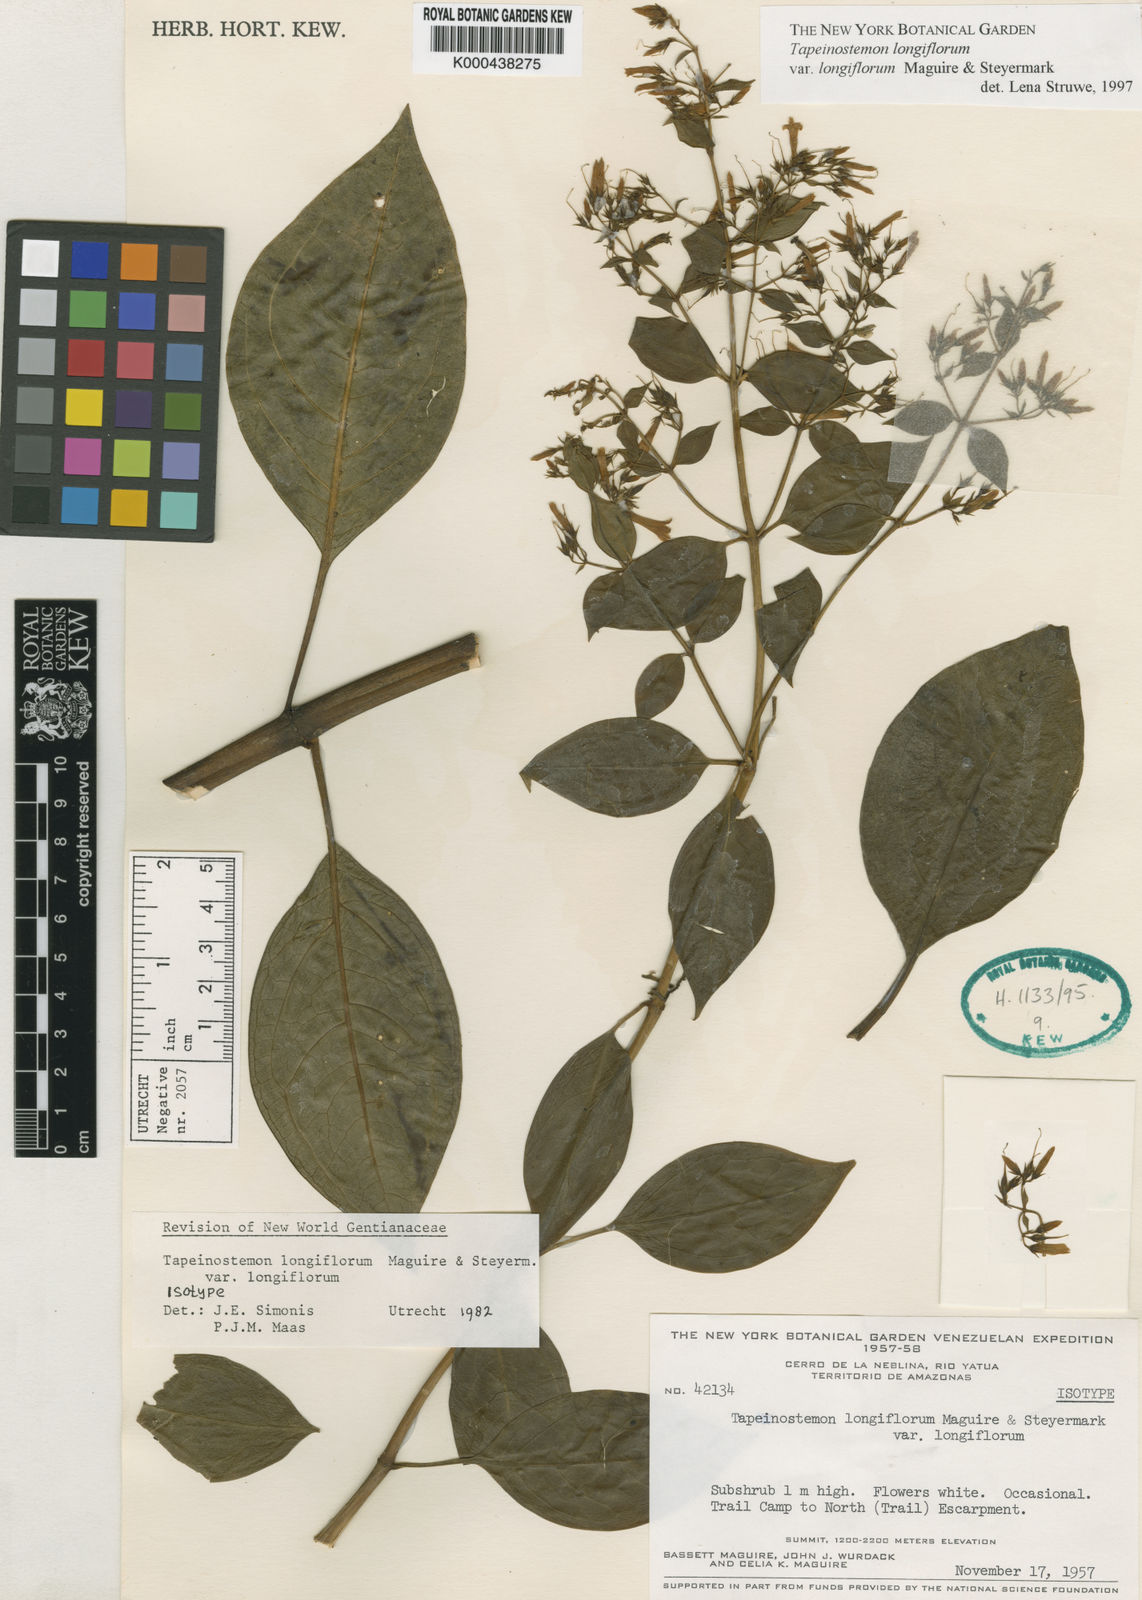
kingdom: Plantae
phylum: Tracheophyta
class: Magnoliopsida
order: Gentianales
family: Gentianaceae
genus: Tapeinostemon
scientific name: Tapeinostemon longiflorus
